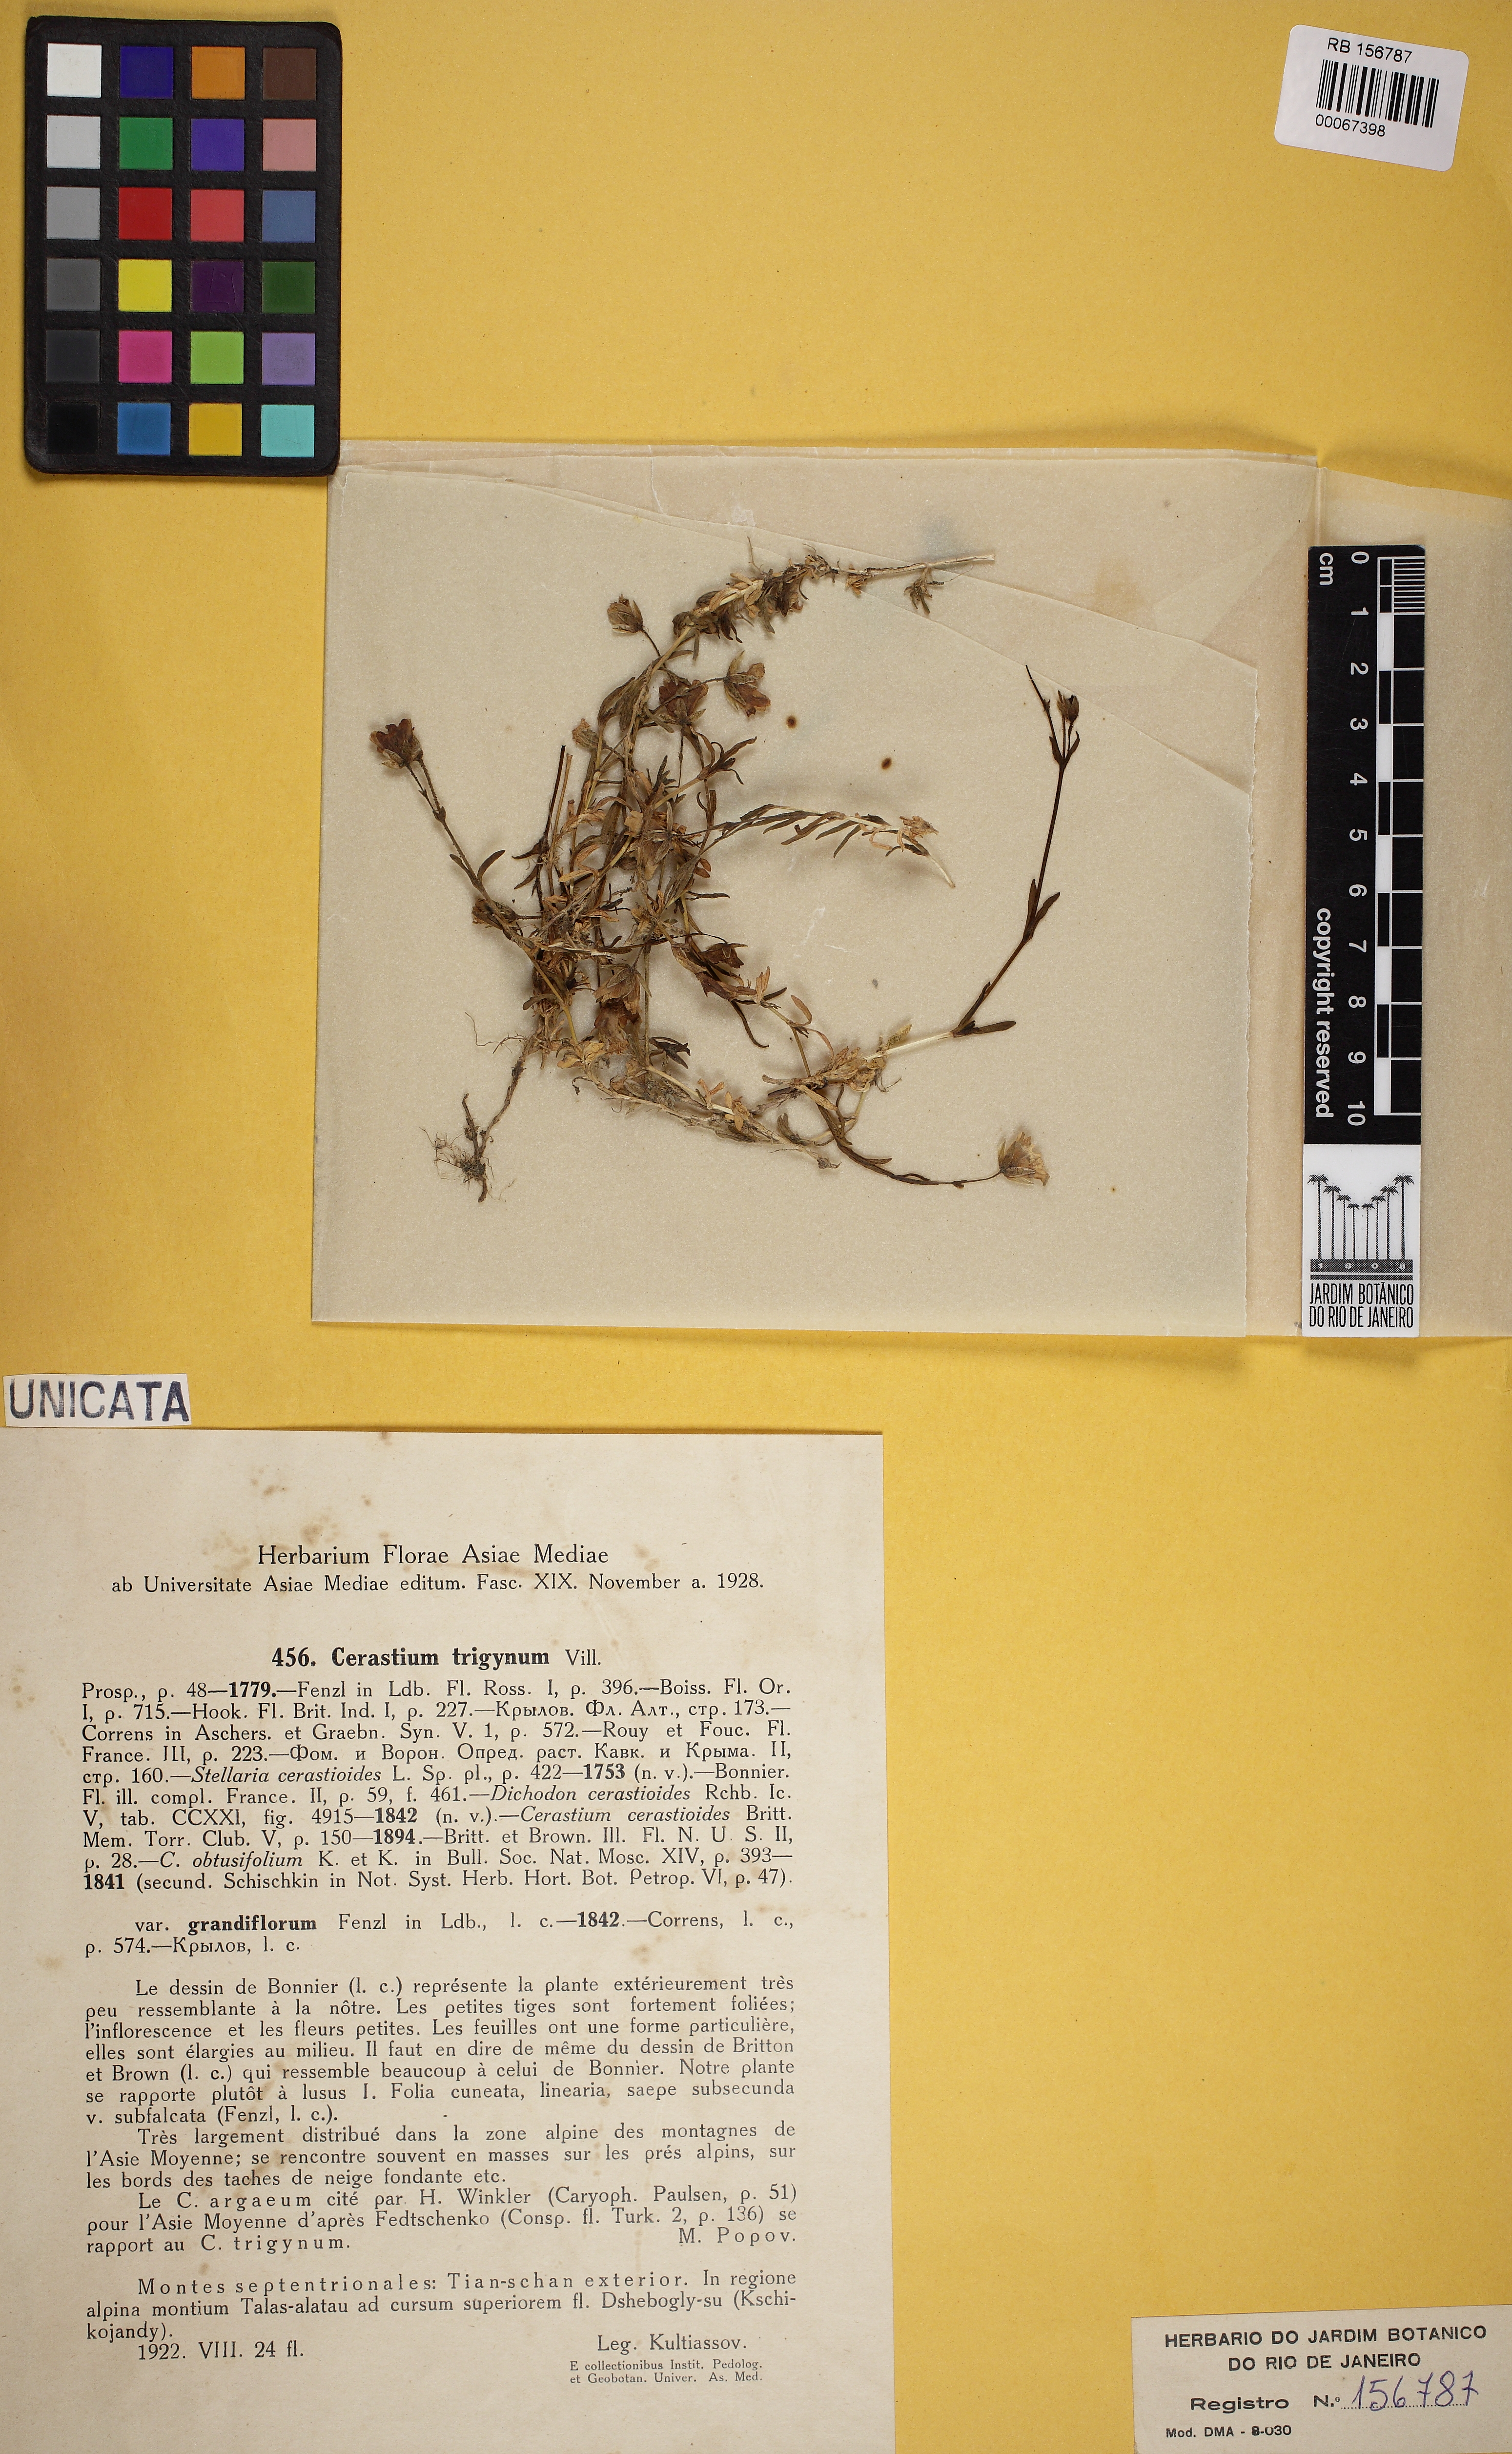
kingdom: Plantae
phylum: Tracheophyta
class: Magnoliopsida
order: Caryophyllales
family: Caryophyllaceae
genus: Dichodon
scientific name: Dichodon cerastoides
